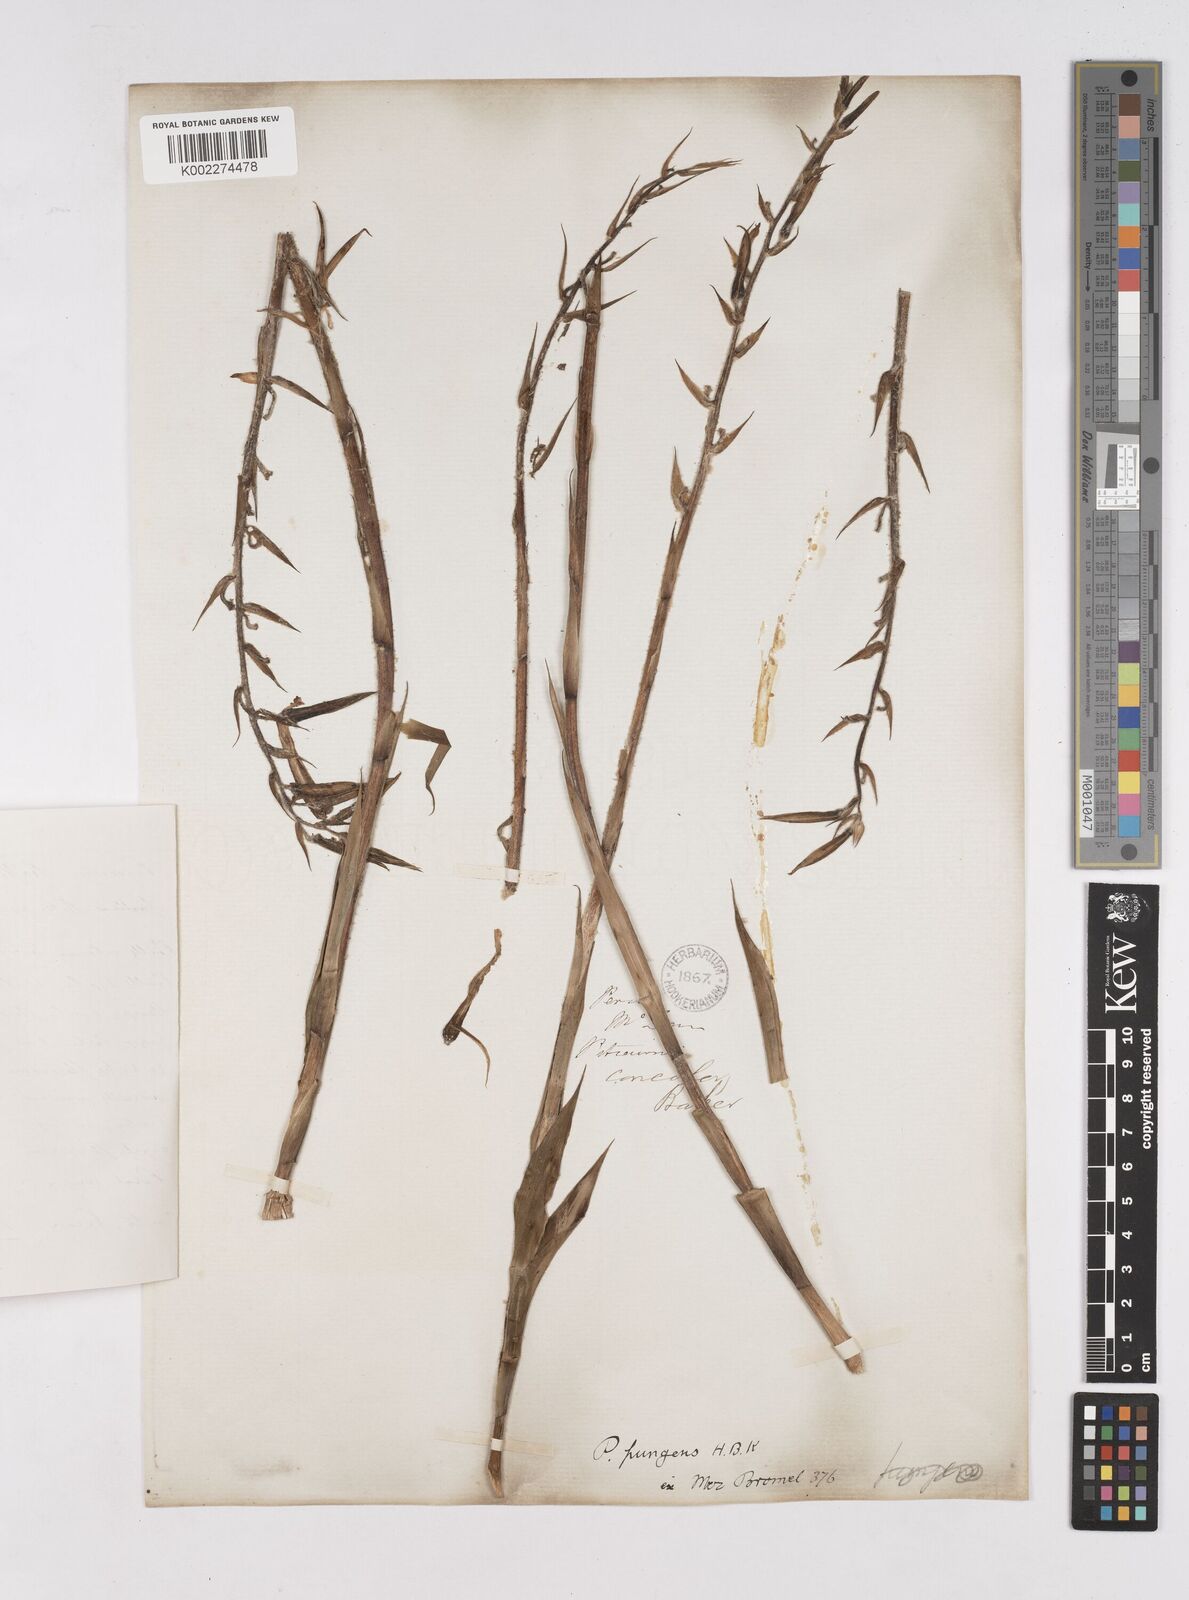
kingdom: Plantae
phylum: Tracheophyta
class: Liliopsida
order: Poales
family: Bromeliaceae
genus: Pitcairnia
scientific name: Pitcairnia pungens
